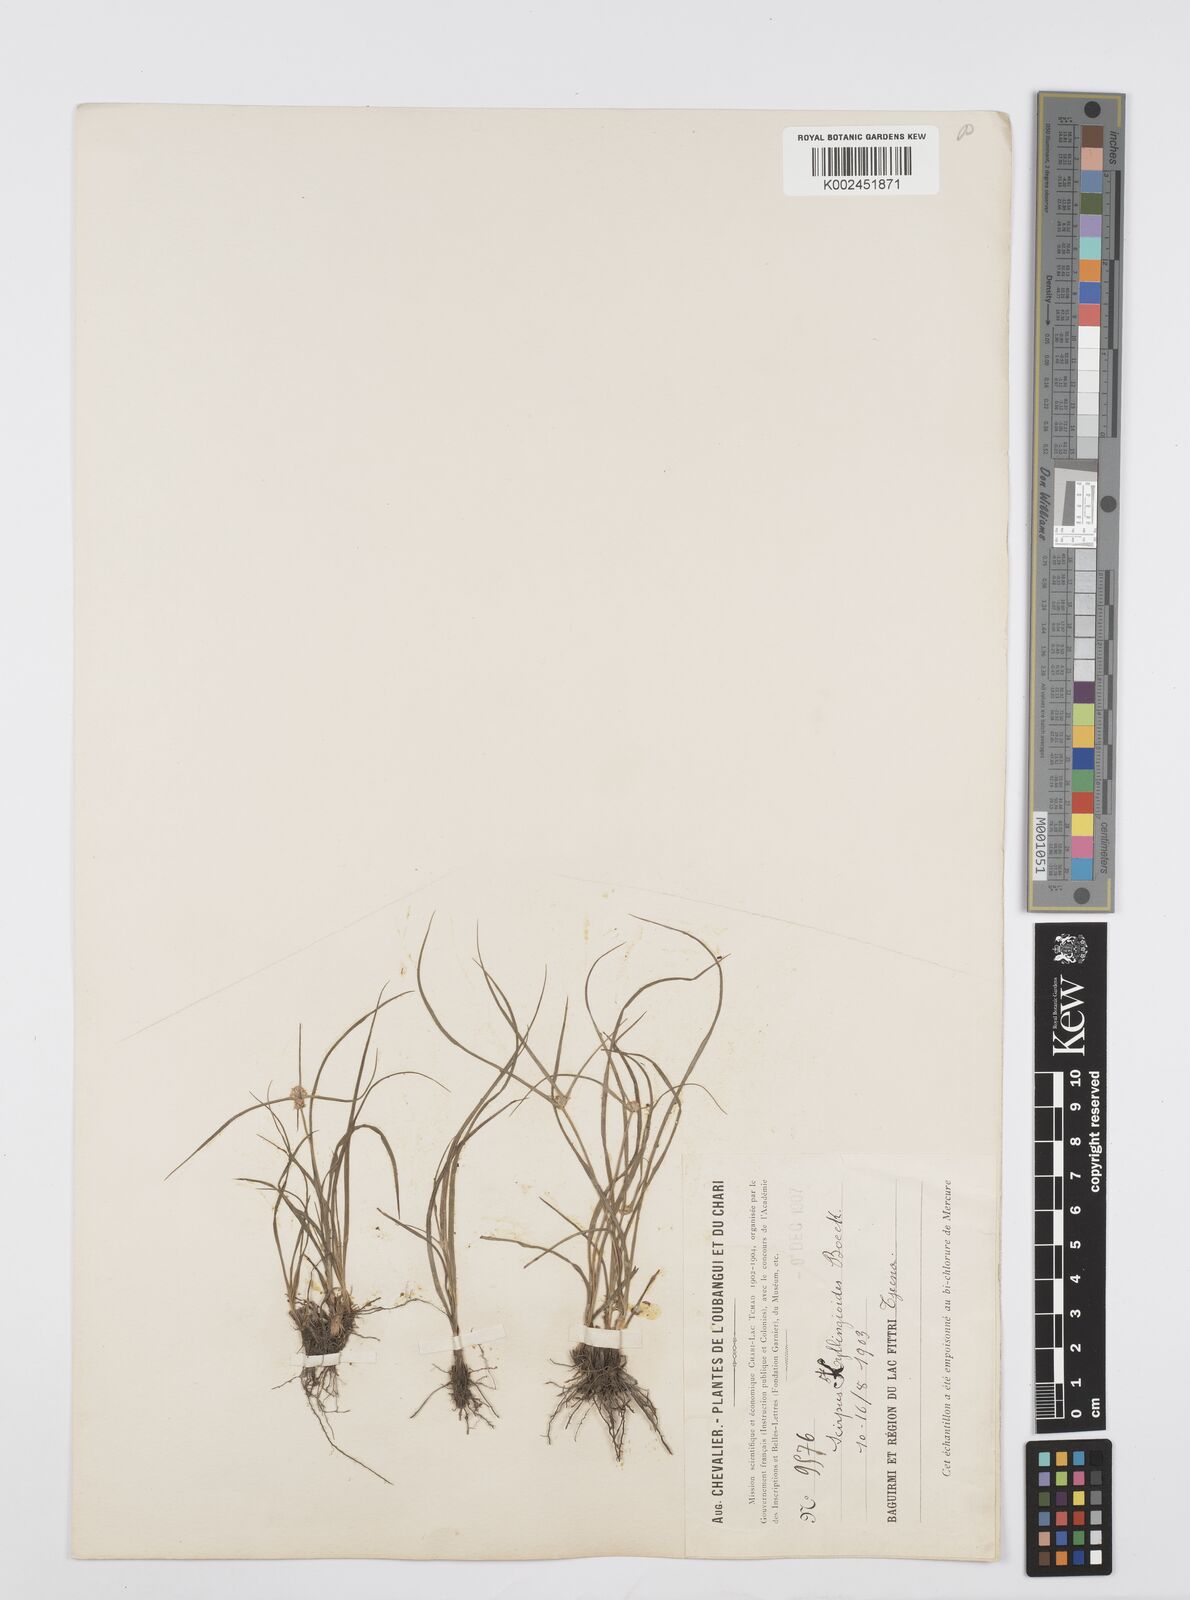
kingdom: Plantae
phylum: Tracheophyta
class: Liliopsida
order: Poales
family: Cyperaceae
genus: Cyperus
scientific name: Cyperus microcephalus
